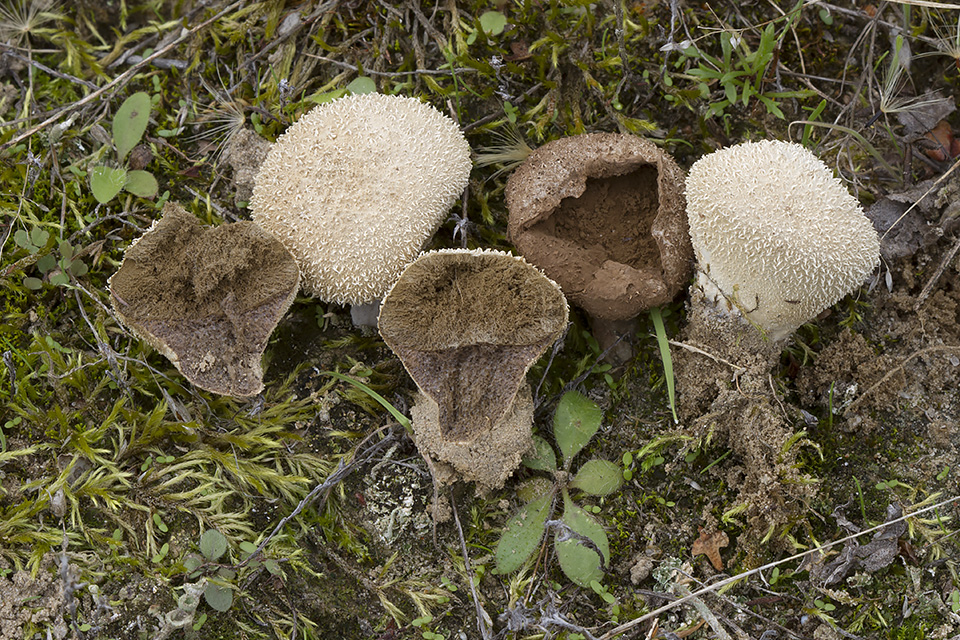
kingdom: Fungi
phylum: Basidiomycota
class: Agaricomycetes
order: Agaricales
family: Lycoperdaceae
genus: Lycoperdon
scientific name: Lycoperdon pratense
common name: flad støvbold
